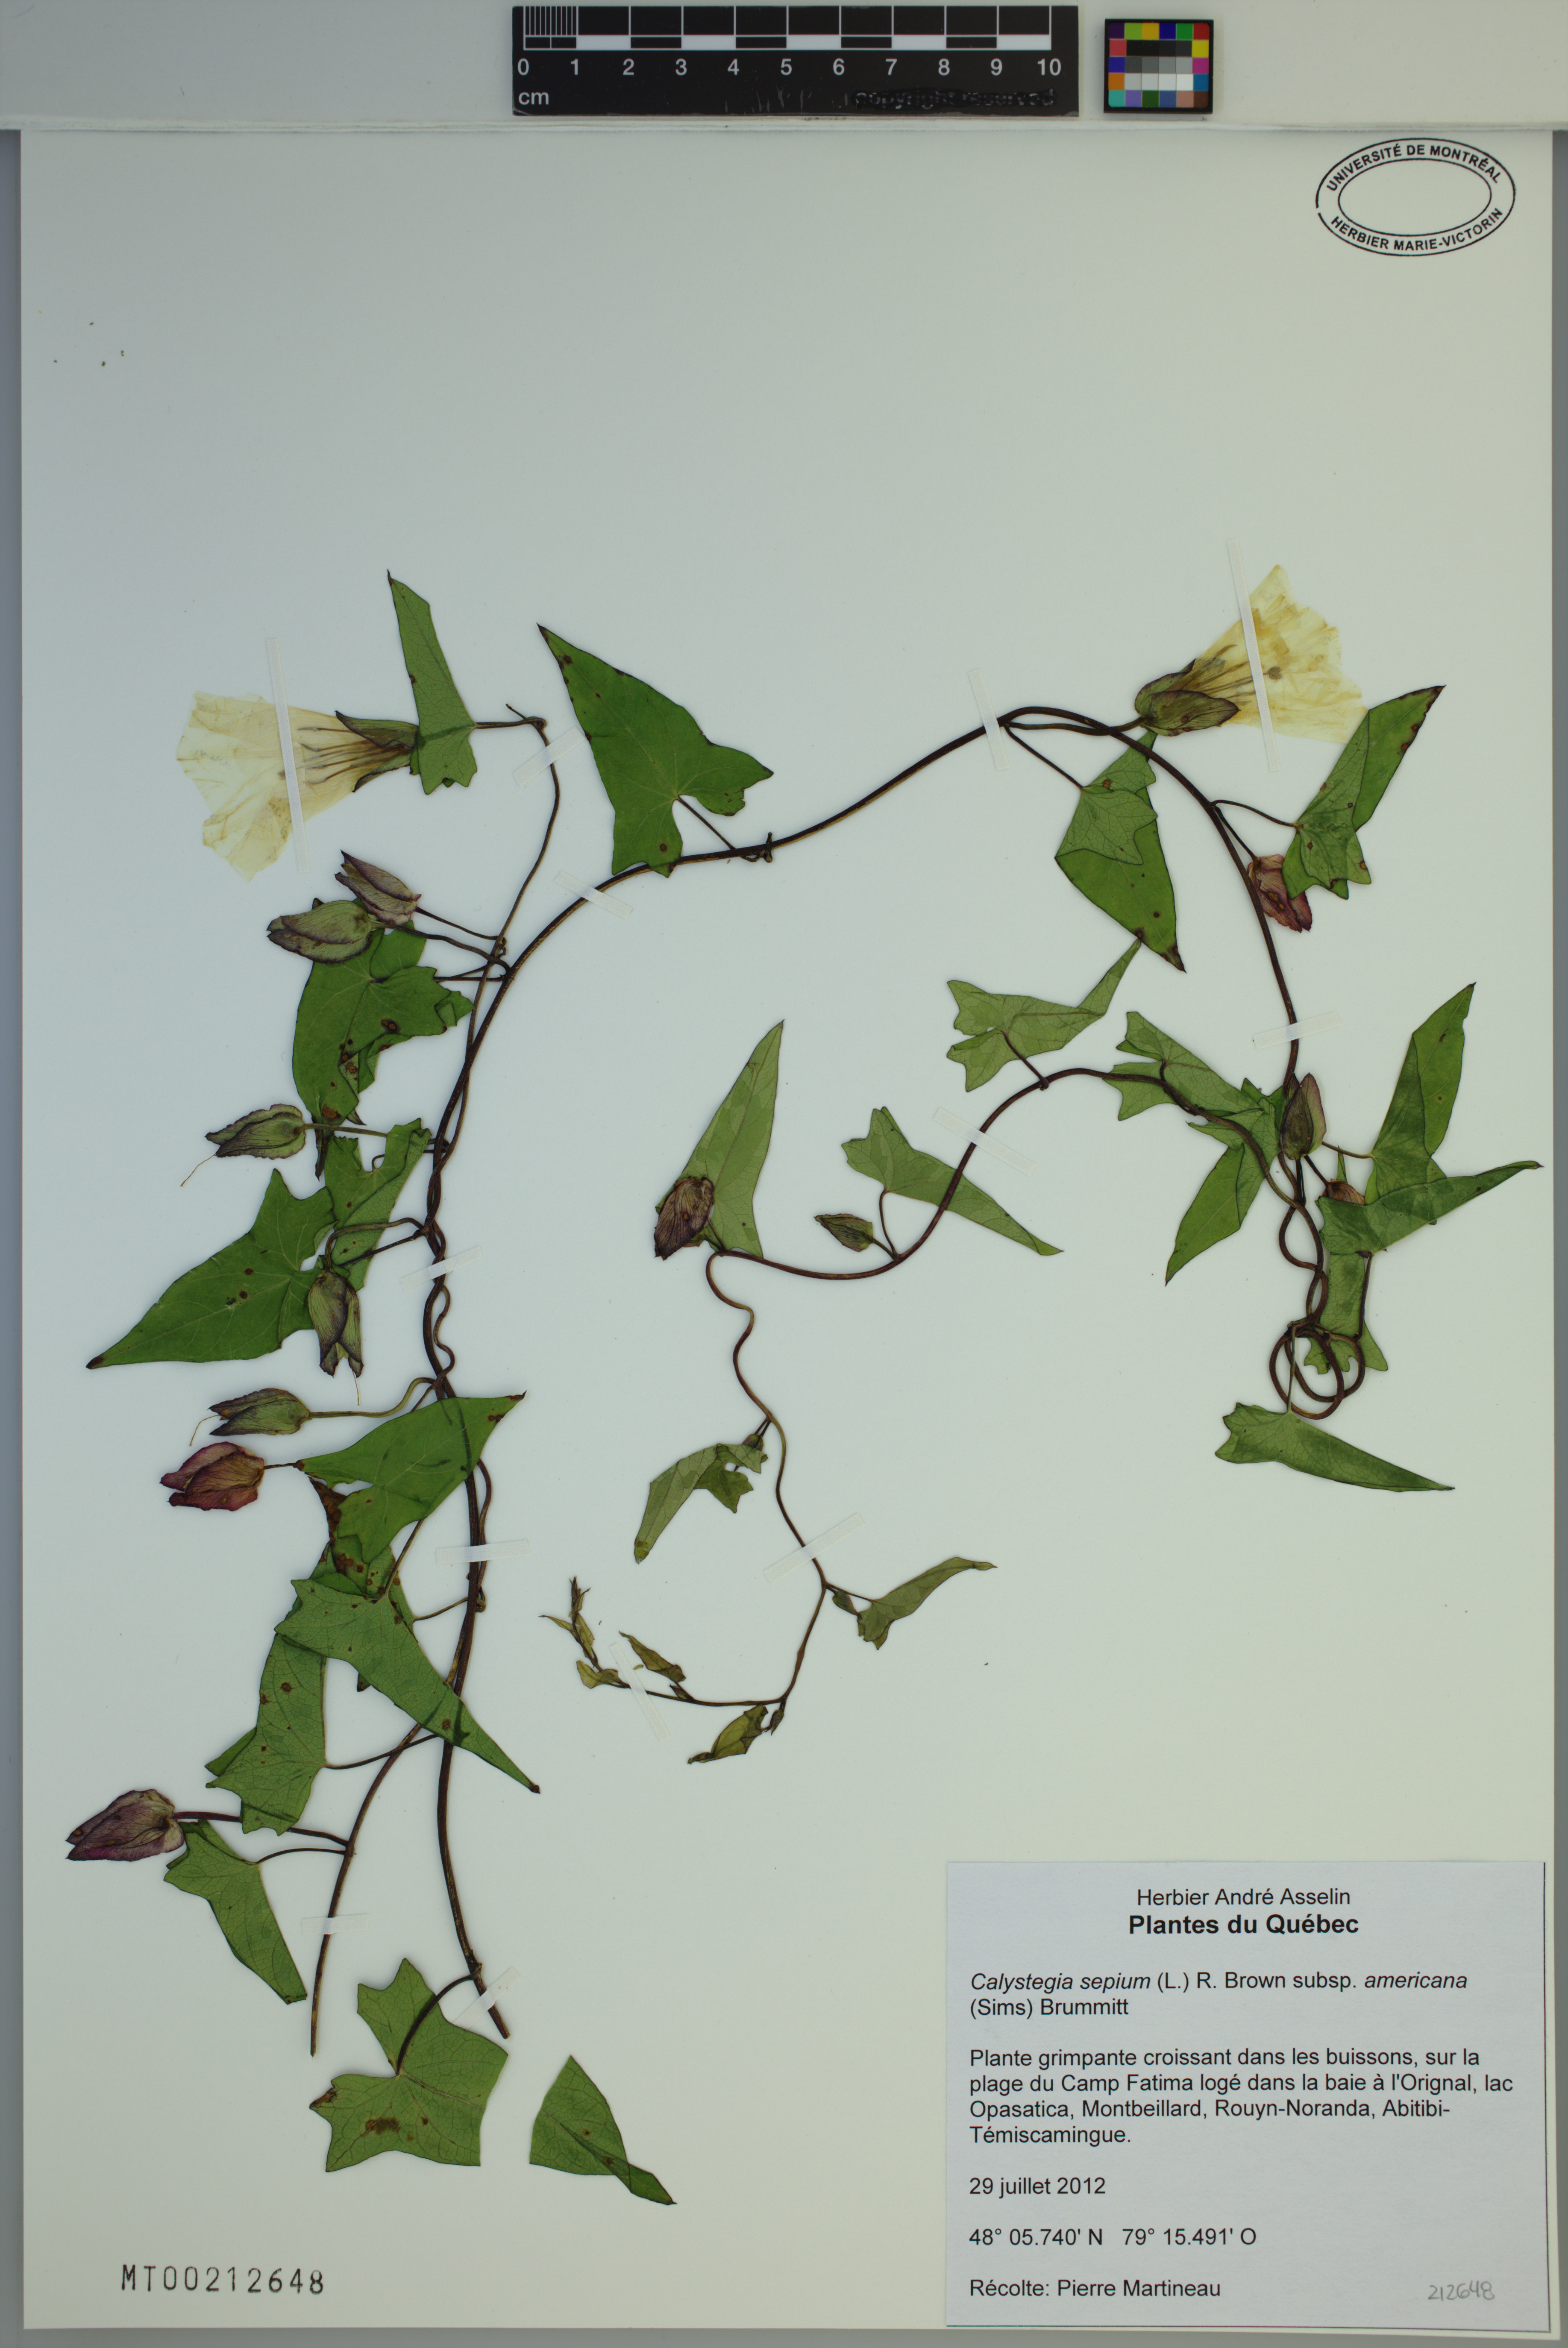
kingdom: Plantae
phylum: Tracheophyta
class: Magnoliopsida
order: Solanales
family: Convolvulaceae
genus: Calystegia
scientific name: Calystegia sepium
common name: Hedge bindweed
